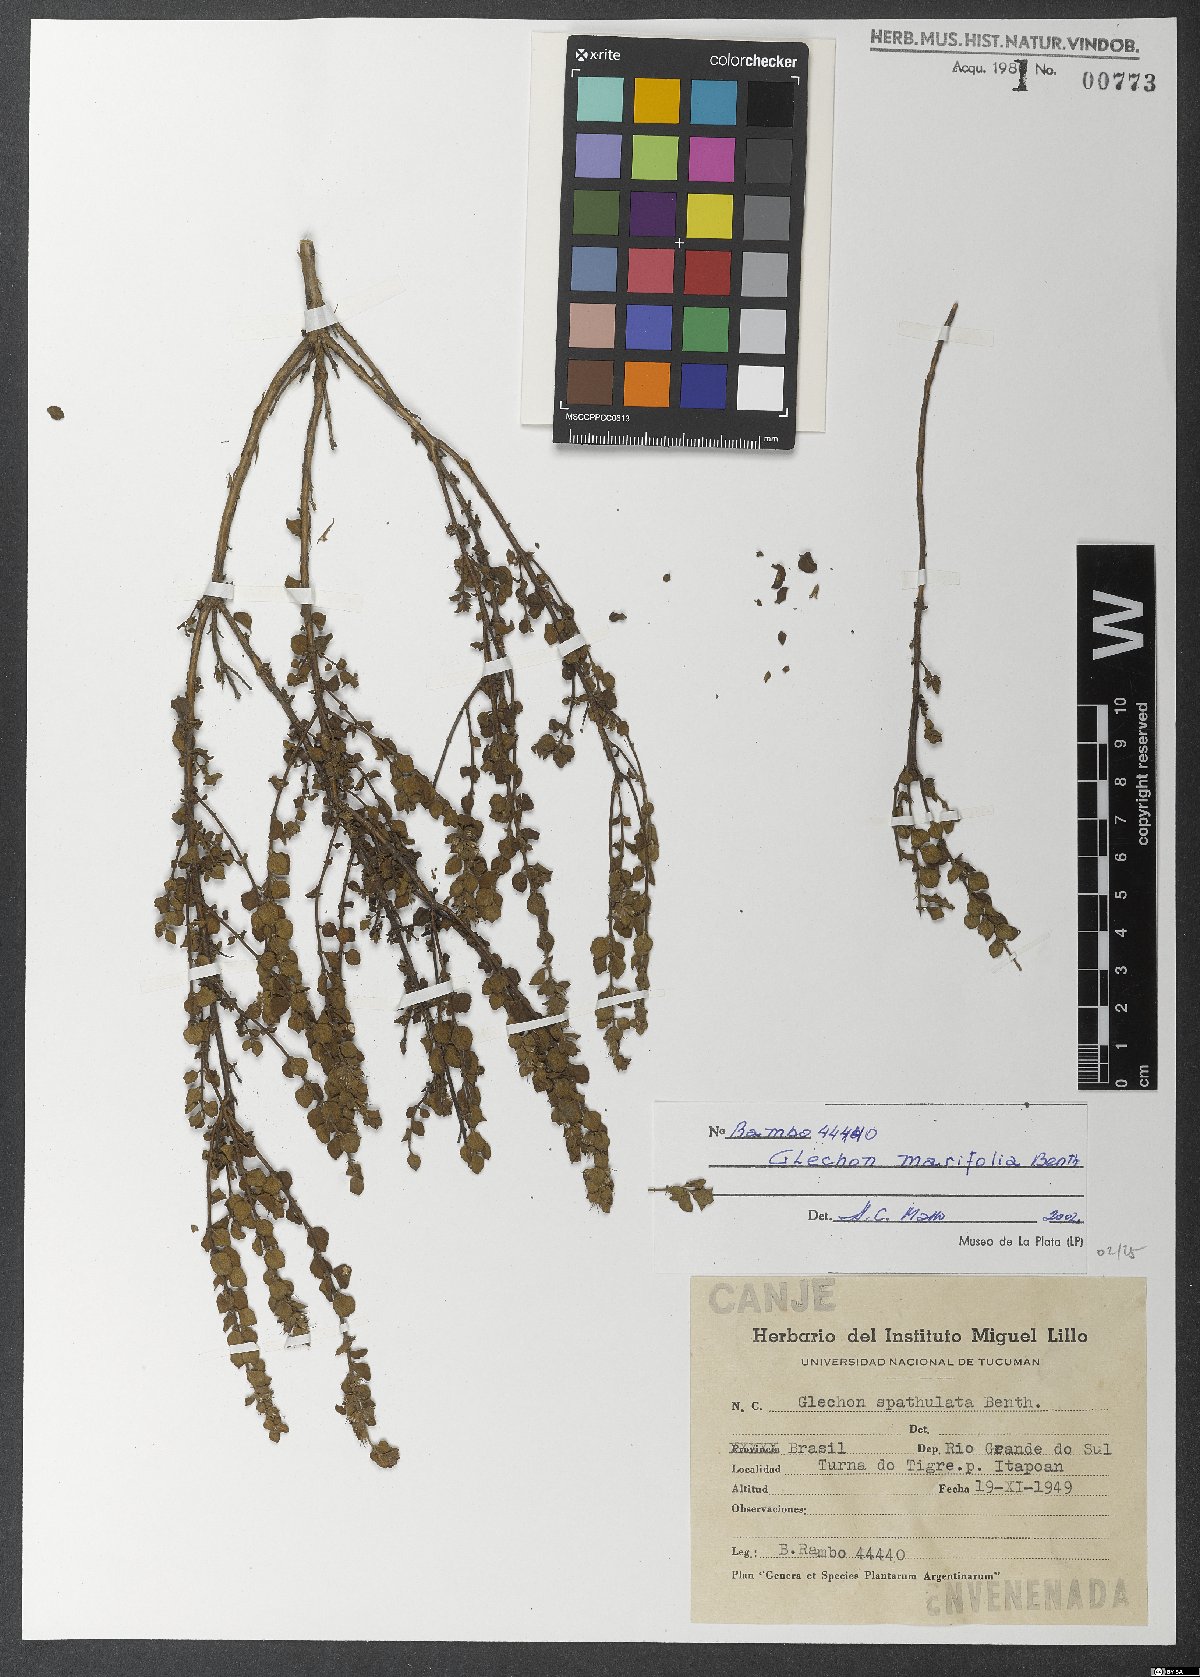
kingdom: Plantae
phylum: Tracheophyta
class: Magnoliopsida
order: Lamiales
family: Lamiaceae
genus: Glechon
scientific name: Glechon marifolia
